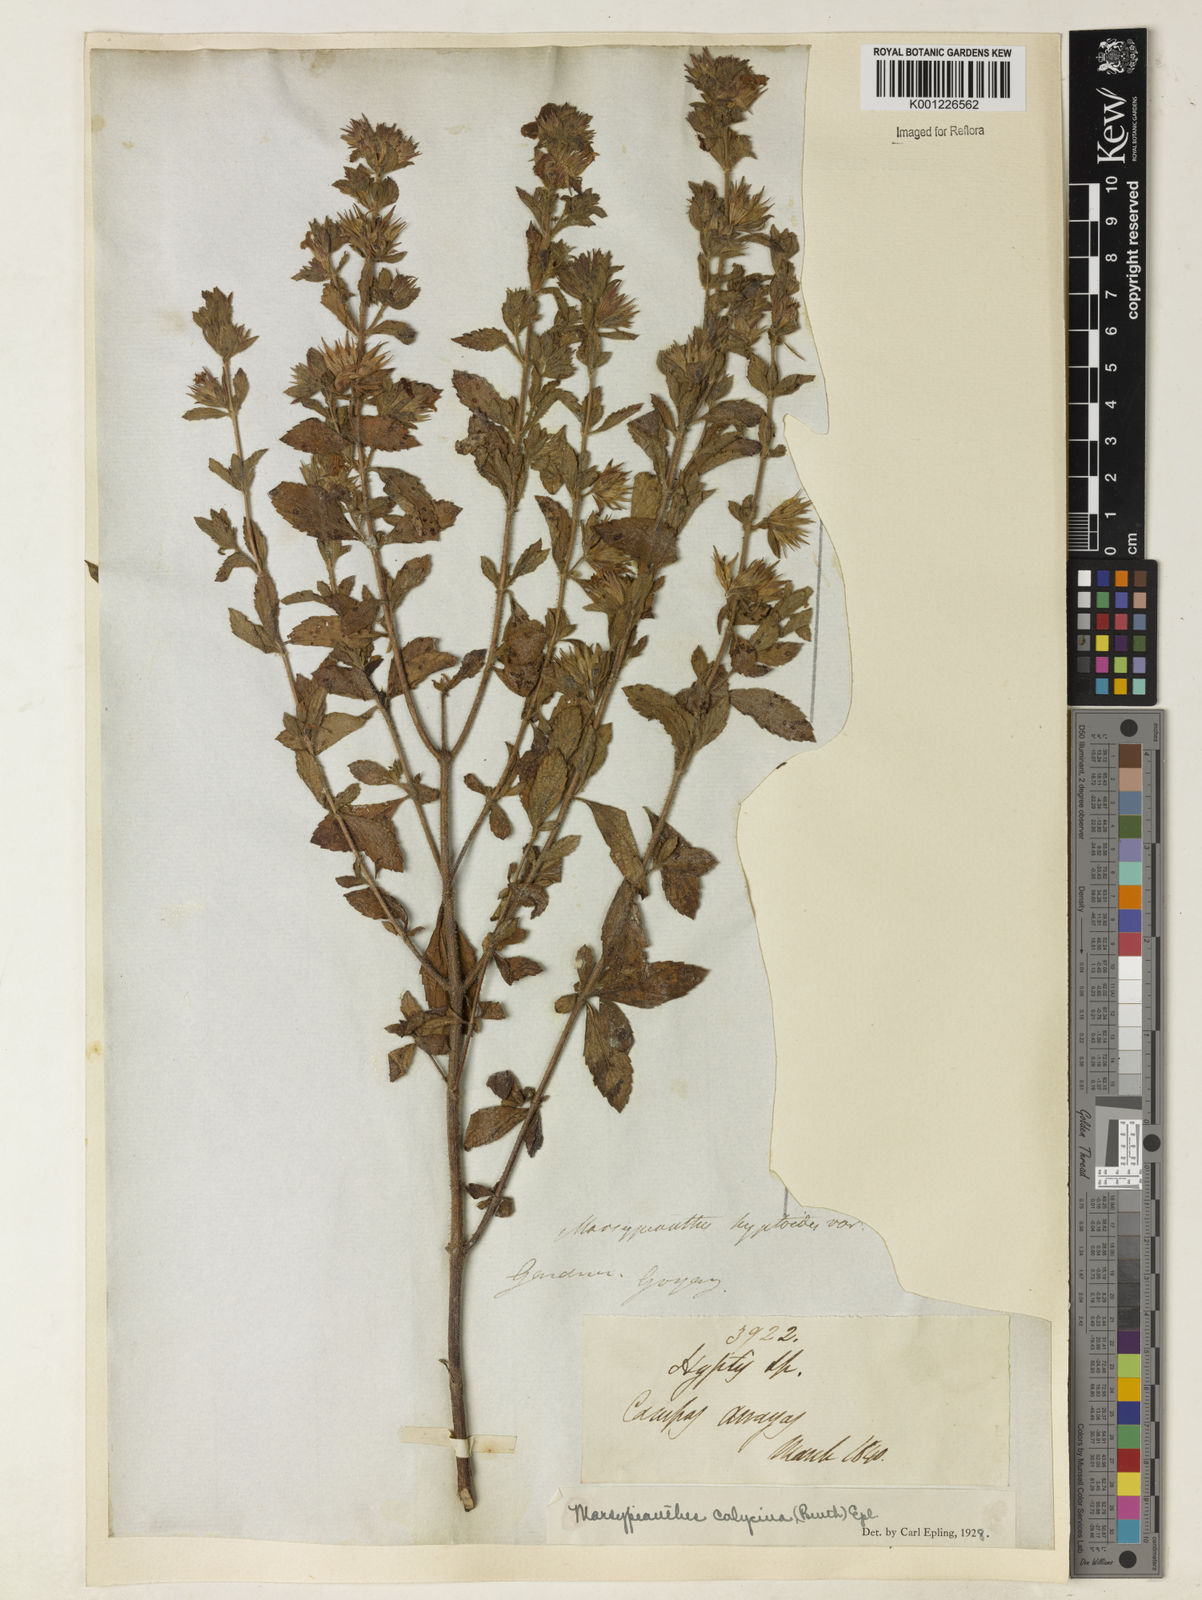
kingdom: Plantae
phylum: Tracheophyta
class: Magnoliopsida
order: Lamiales
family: Lamiaceae
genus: Marsypianthes
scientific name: Marsypianthes burchellii
